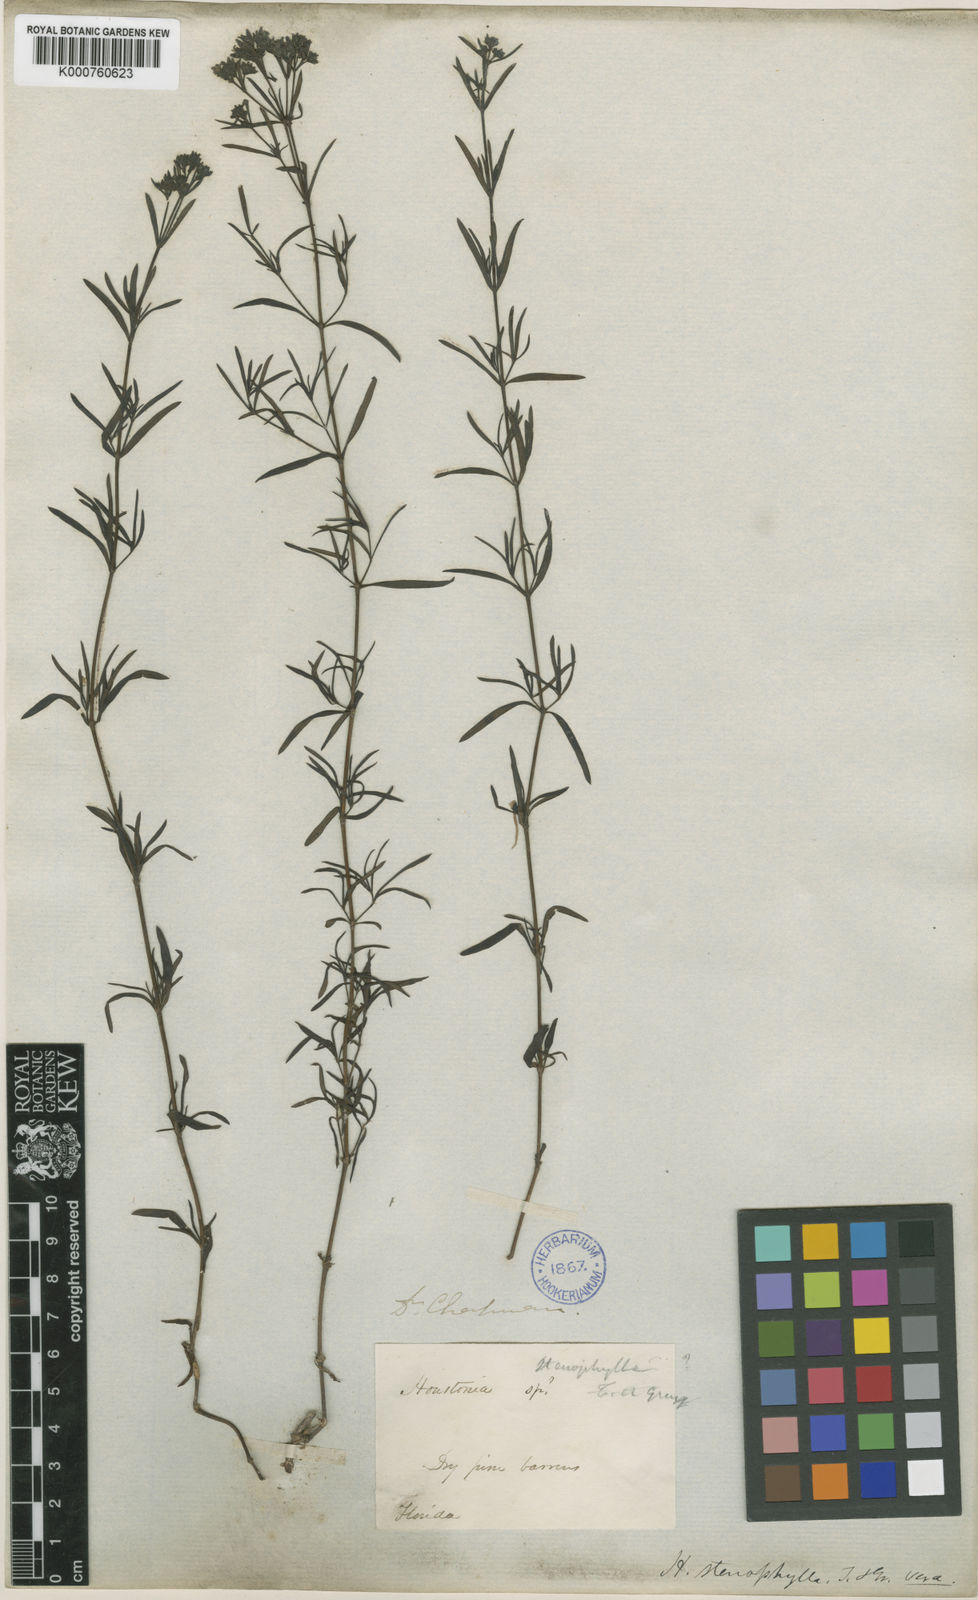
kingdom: Plantae
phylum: Tracheophyta
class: Magnoliopsida
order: Gentianales
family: Rubiaceae
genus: Stenaria
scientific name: Stenaria nigricans
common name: Diamondflowers
